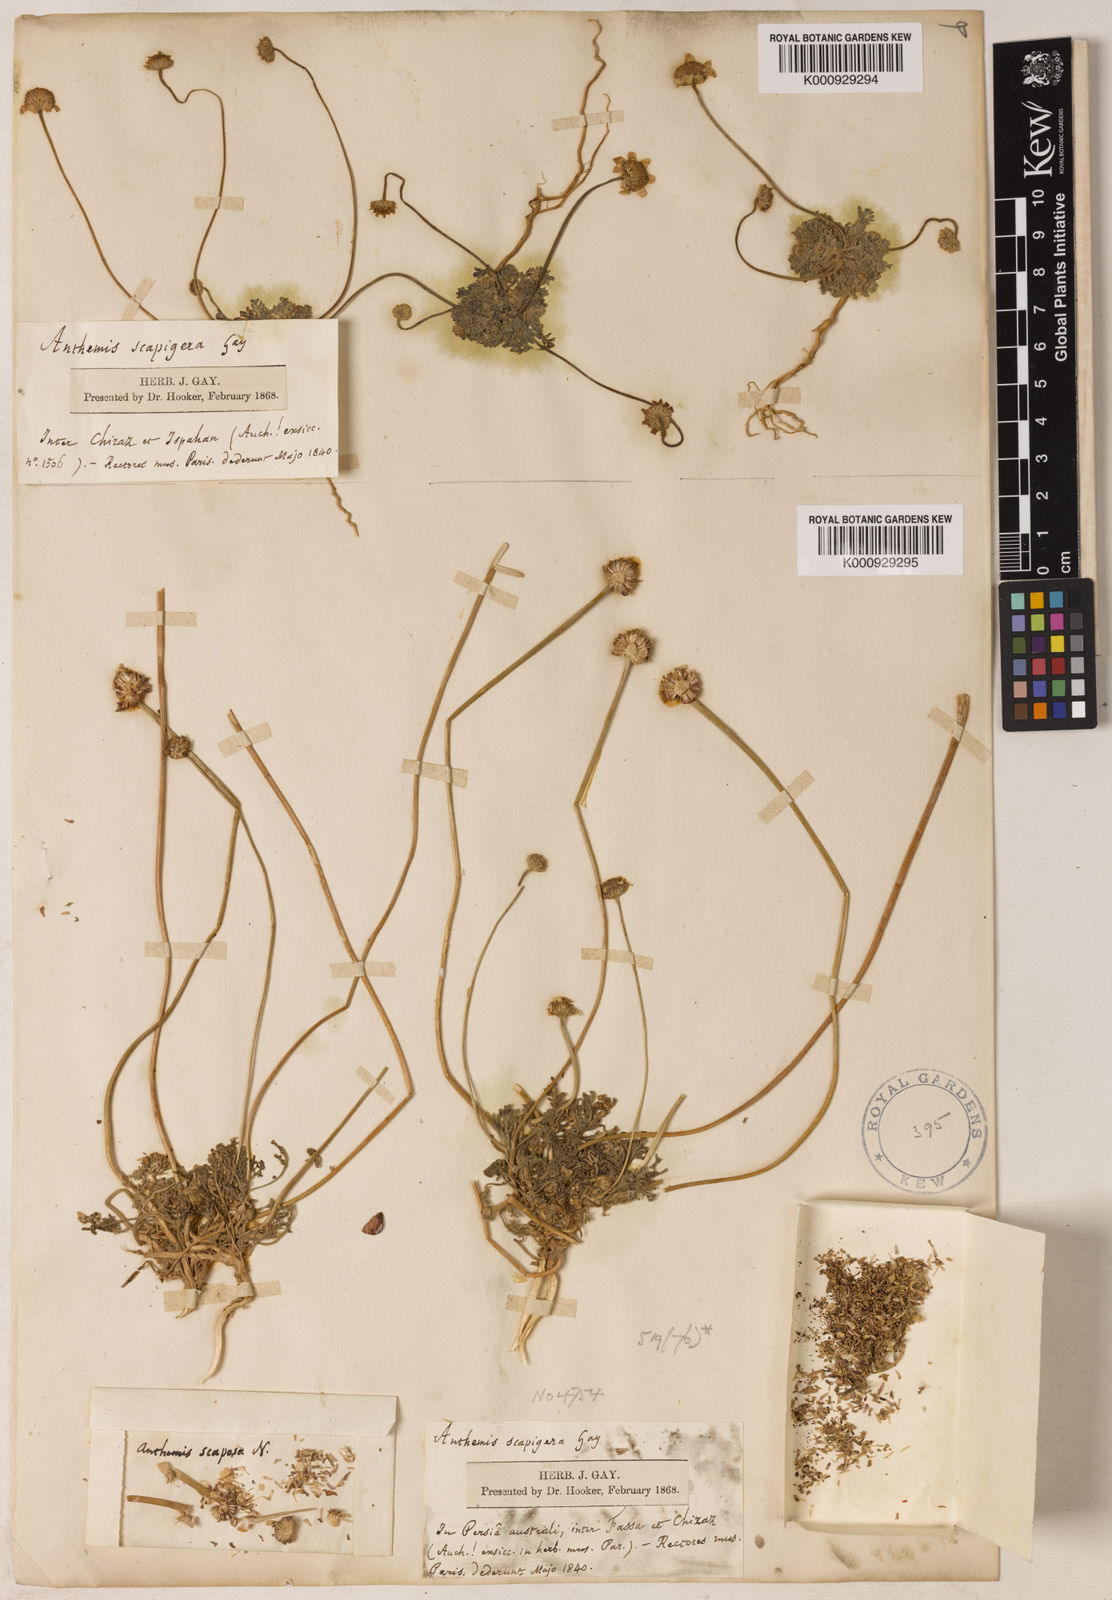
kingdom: Plantae
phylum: Tracheophyta
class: Magnoliopsida
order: Asterales
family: Asteraceae
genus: Anthemis
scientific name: Anthemis gayana
